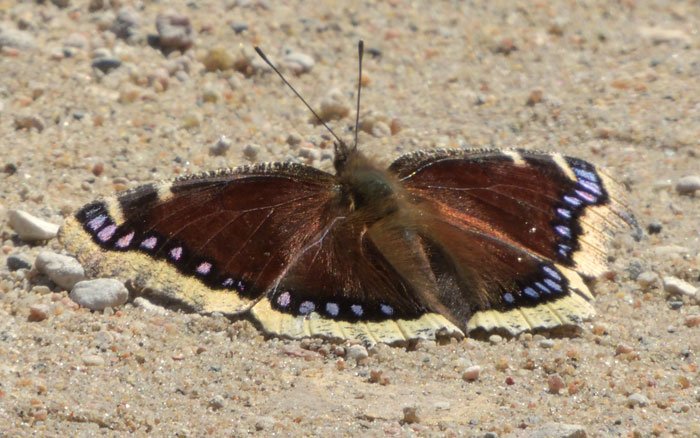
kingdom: Animalia
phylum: Arthropoda
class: Insecta
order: Lepidoptera
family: Nymphalidae
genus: Nymphalis
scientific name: Nymphalis antiopa
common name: Mourning Cloak
